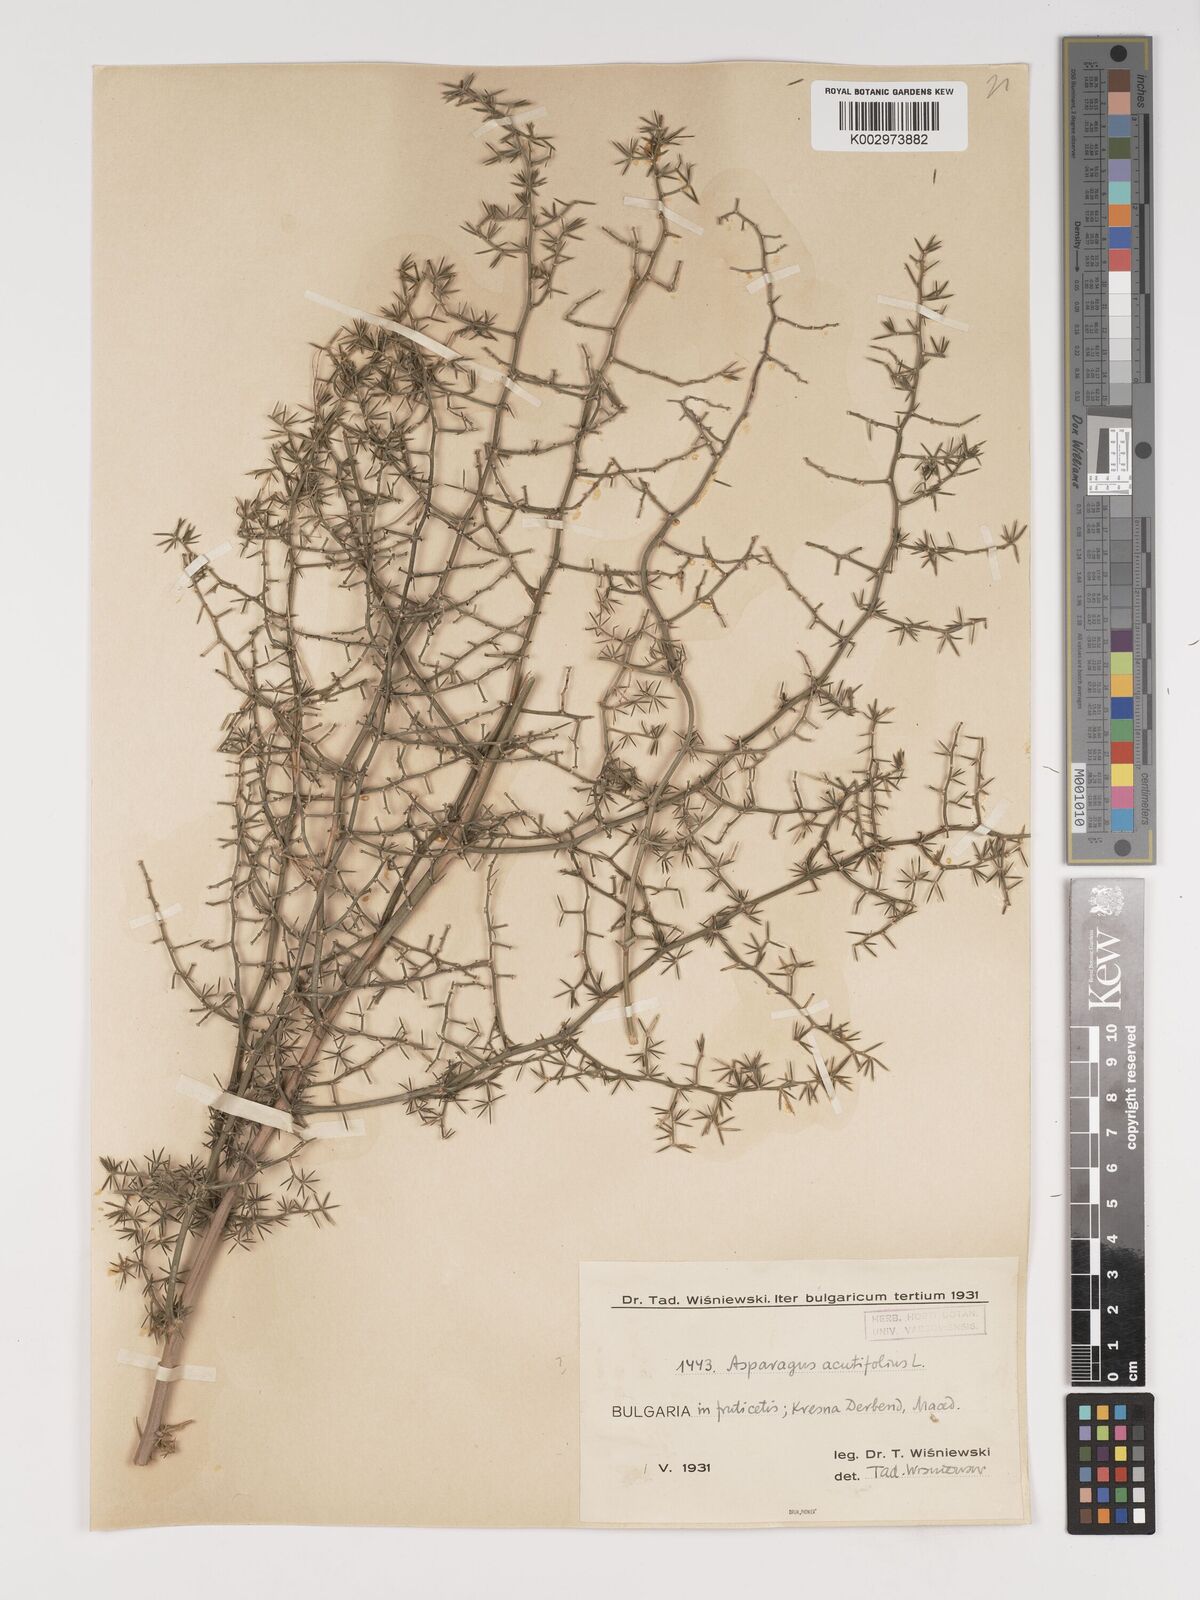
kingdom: Plantae
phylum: Tracheophyta
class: Liliopsida
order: Asparagales
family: Asparagaceae
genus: Asparagus
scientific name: Asparagus acutifolius
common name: Wild asparagus
